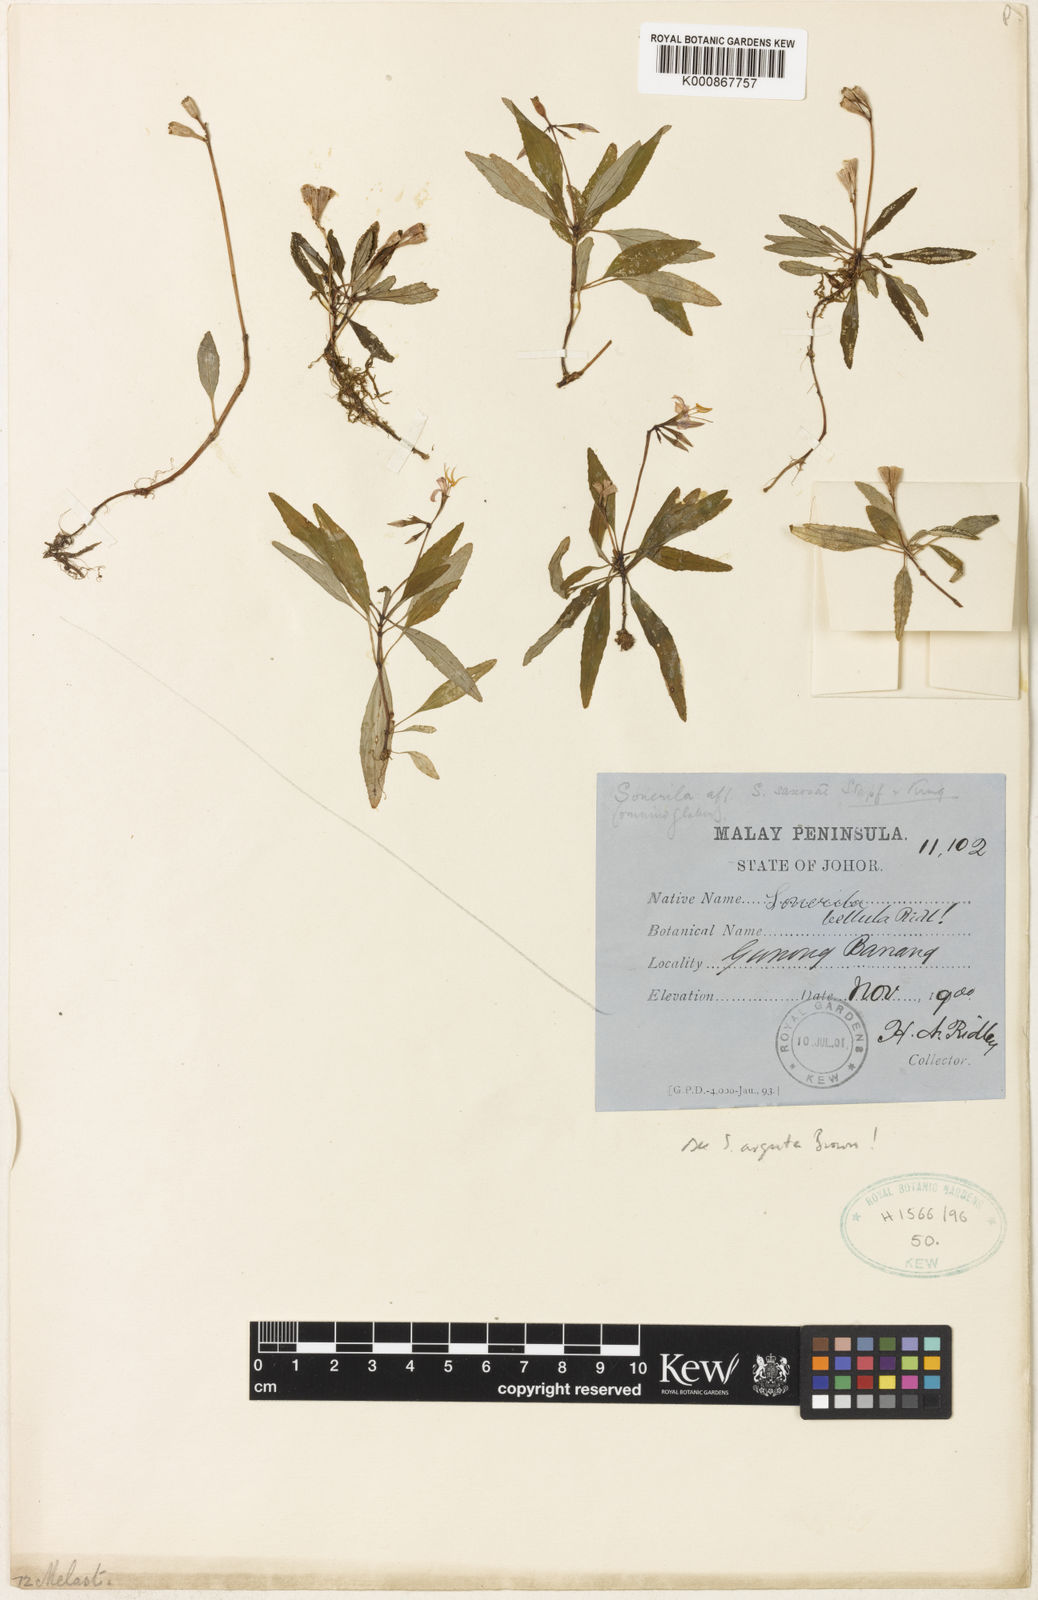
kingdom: Plantae
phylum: Tracheophyta
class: Magnoliopsida
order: Myrtales
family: Melastomataceae
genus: Sonerila
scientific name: Sonerila belluta
